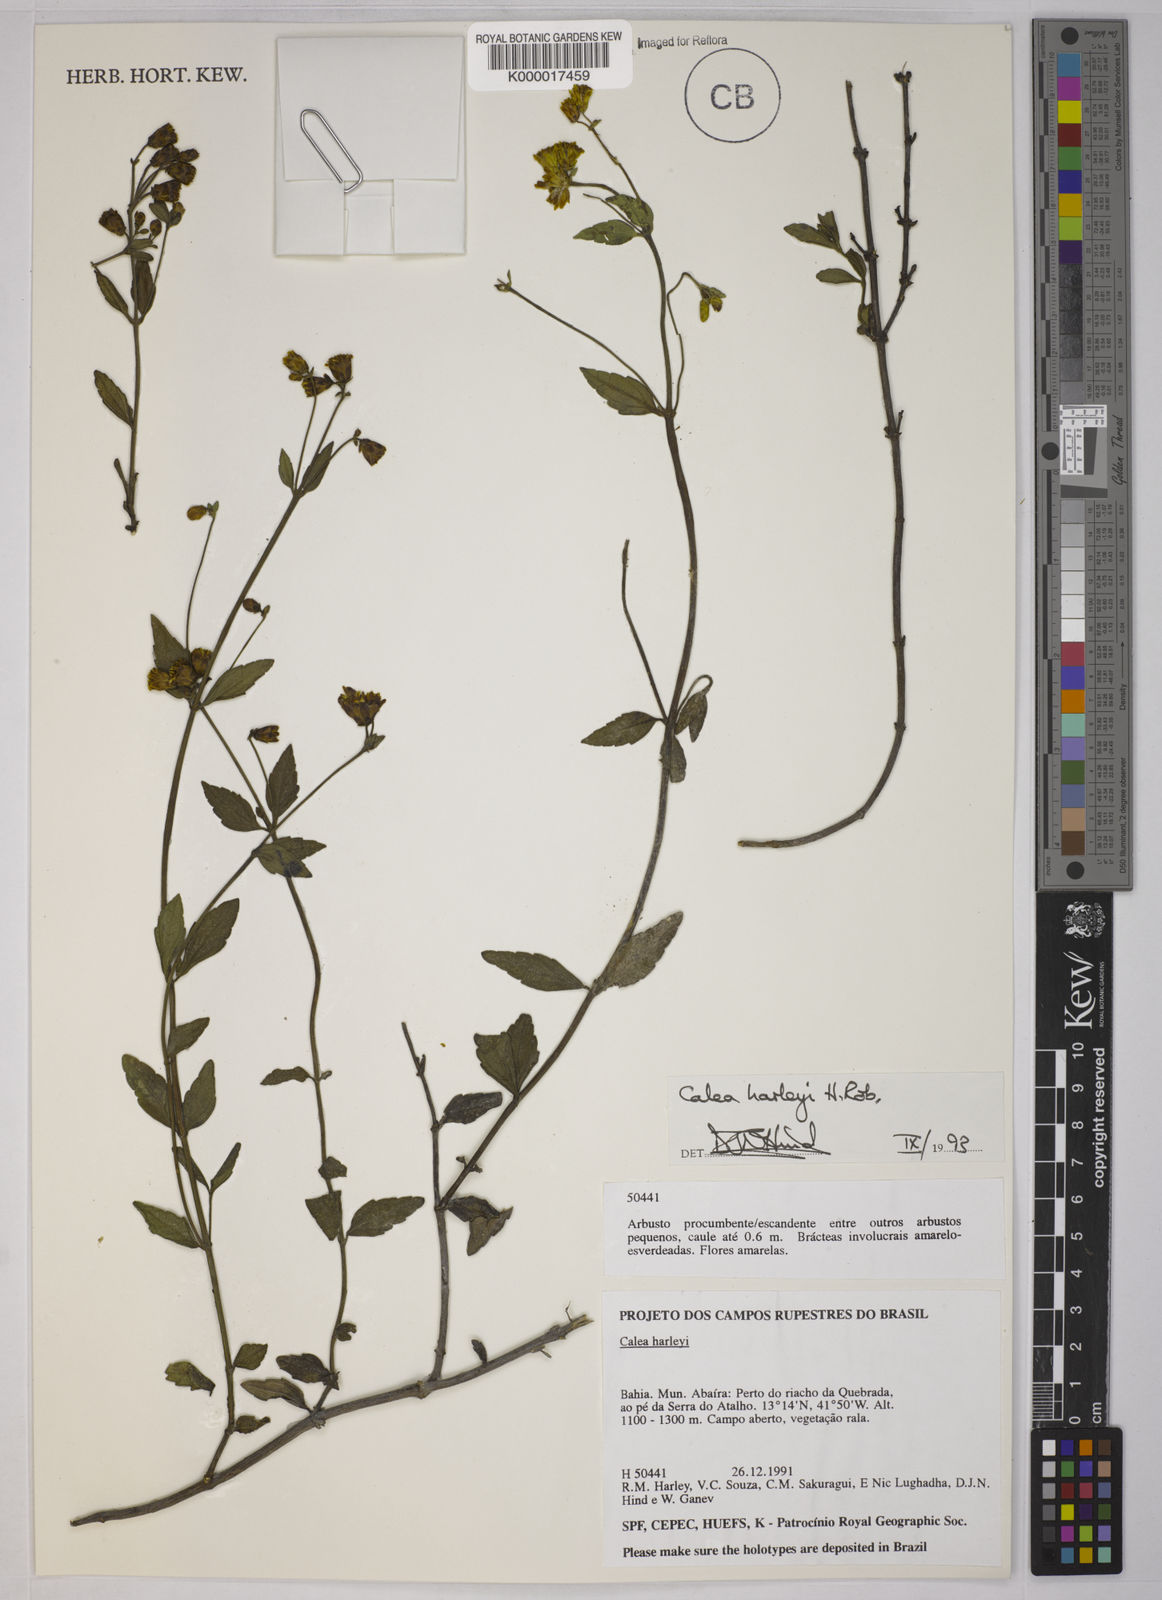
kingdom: Plantae
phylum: Tracheophyta
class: Magnoliopsida
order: Asterales
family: Asteraceae
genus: Calea
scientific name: Calea harleyi
